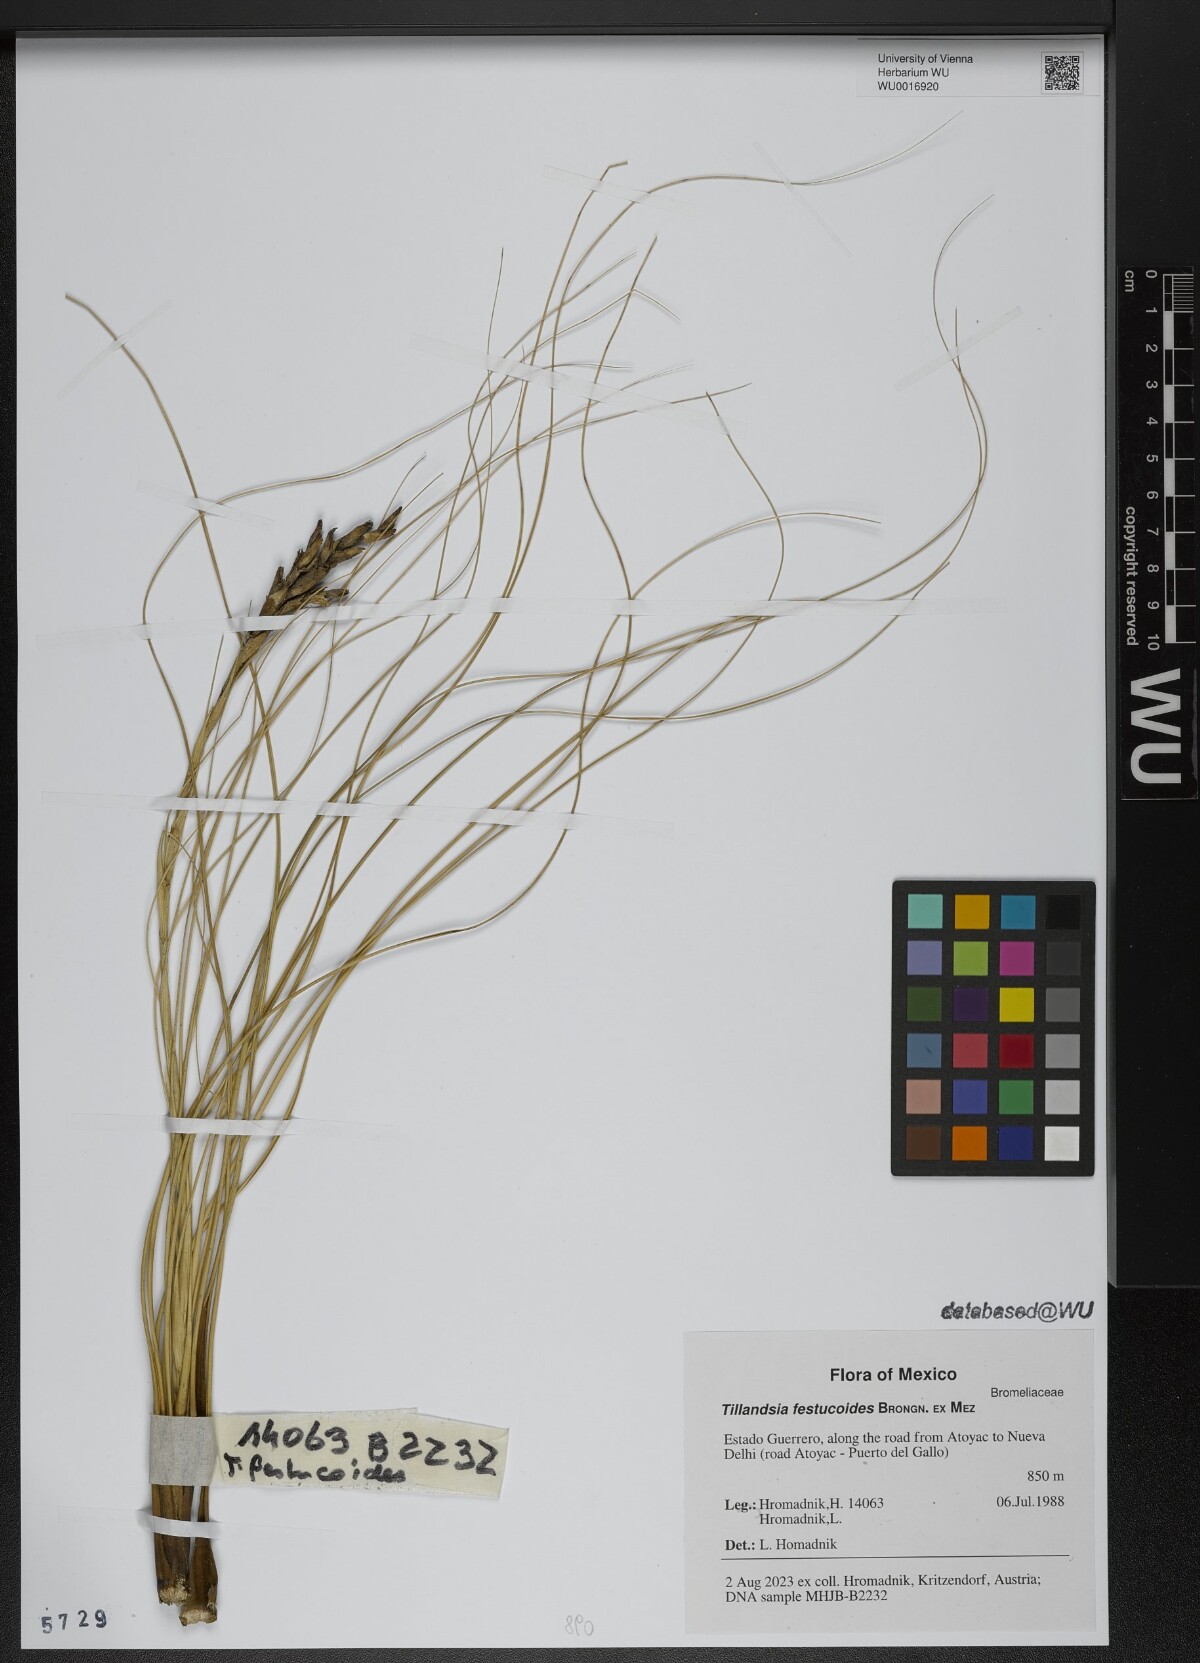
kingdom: Plantae
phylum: Tracheophyta
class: Liliopsida
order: Poales
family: Bromeliaceae
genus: Tillandsia
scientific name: Tillandsia festucoides
